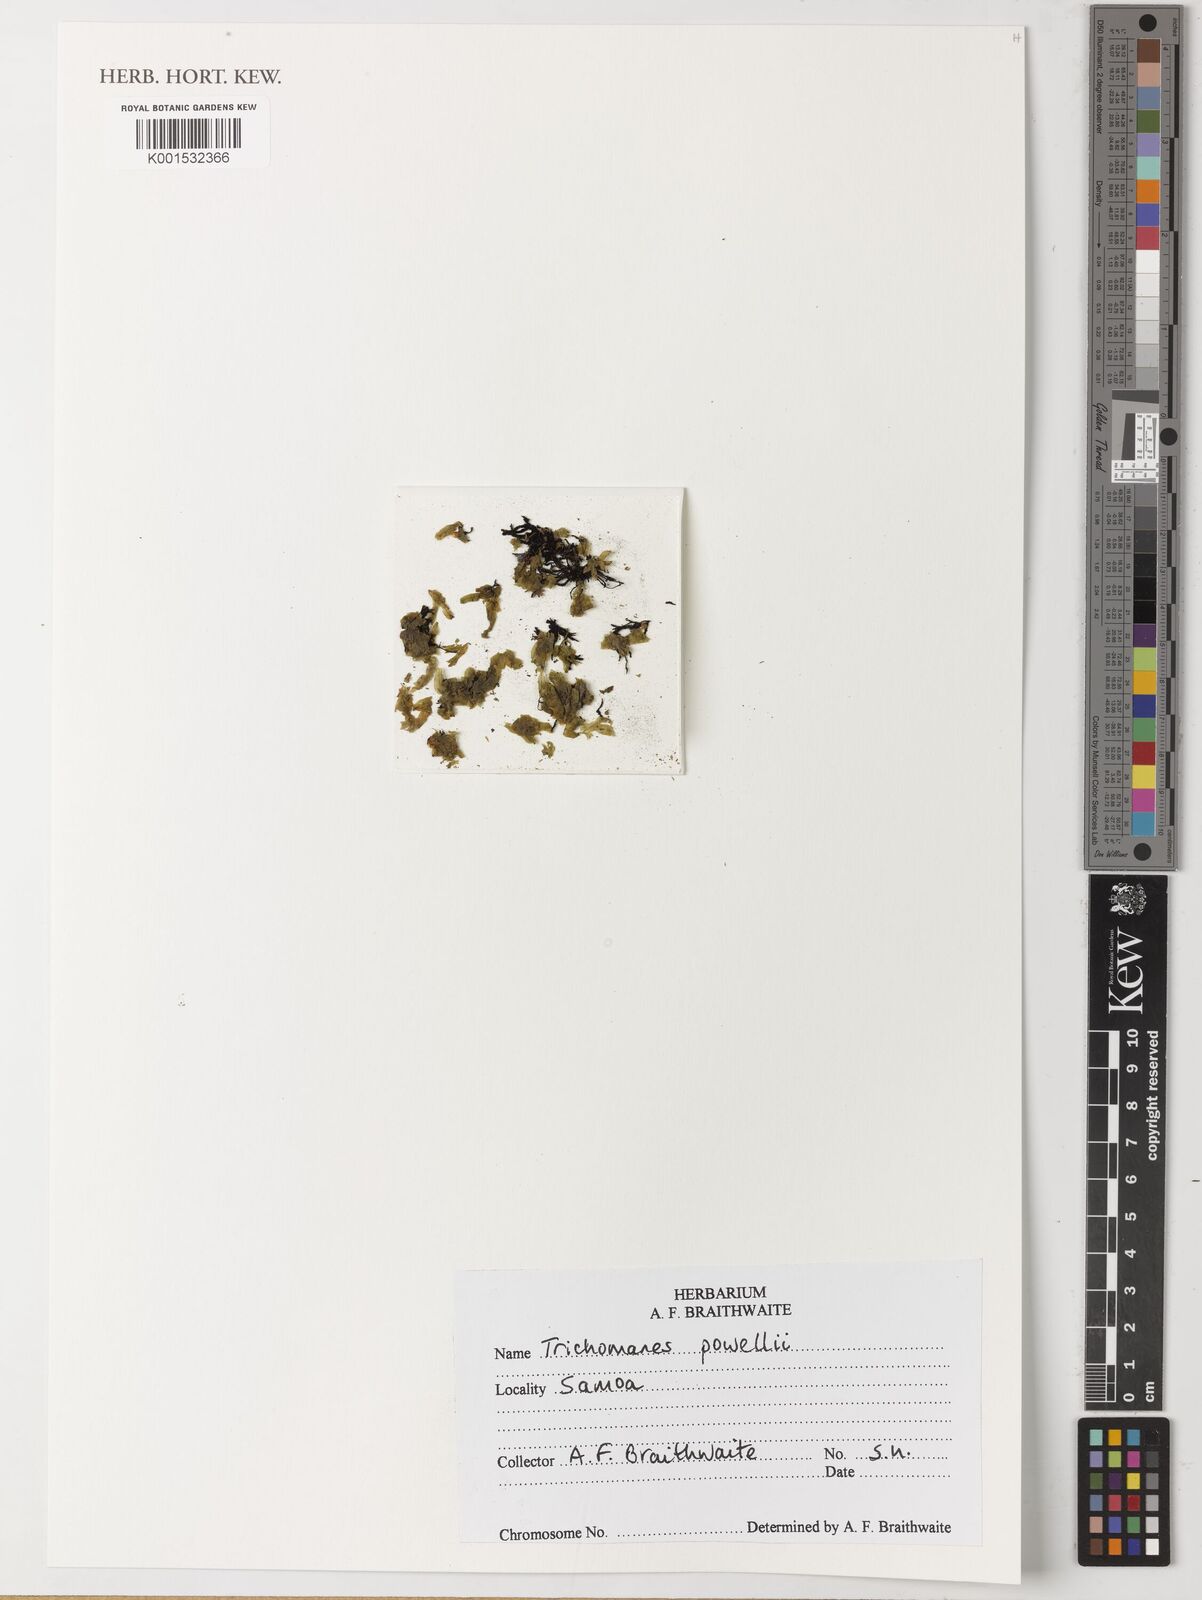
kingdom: Plantae
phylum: Tracheophyta
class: Polypodiopsida
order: Hymenophyllales
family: Hymenophyllaceae
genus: Crepidomanes
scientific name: Crepidomanes powellii
